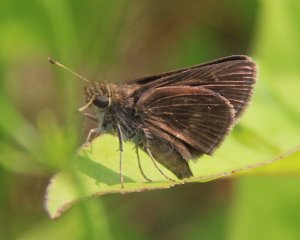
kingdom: Animalia
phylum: Arthropoda
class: Insecta
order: Lepidoptera
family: Hesperiidae
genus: Euphyes
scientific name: Euphyes vestris
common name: Dun Skipper
